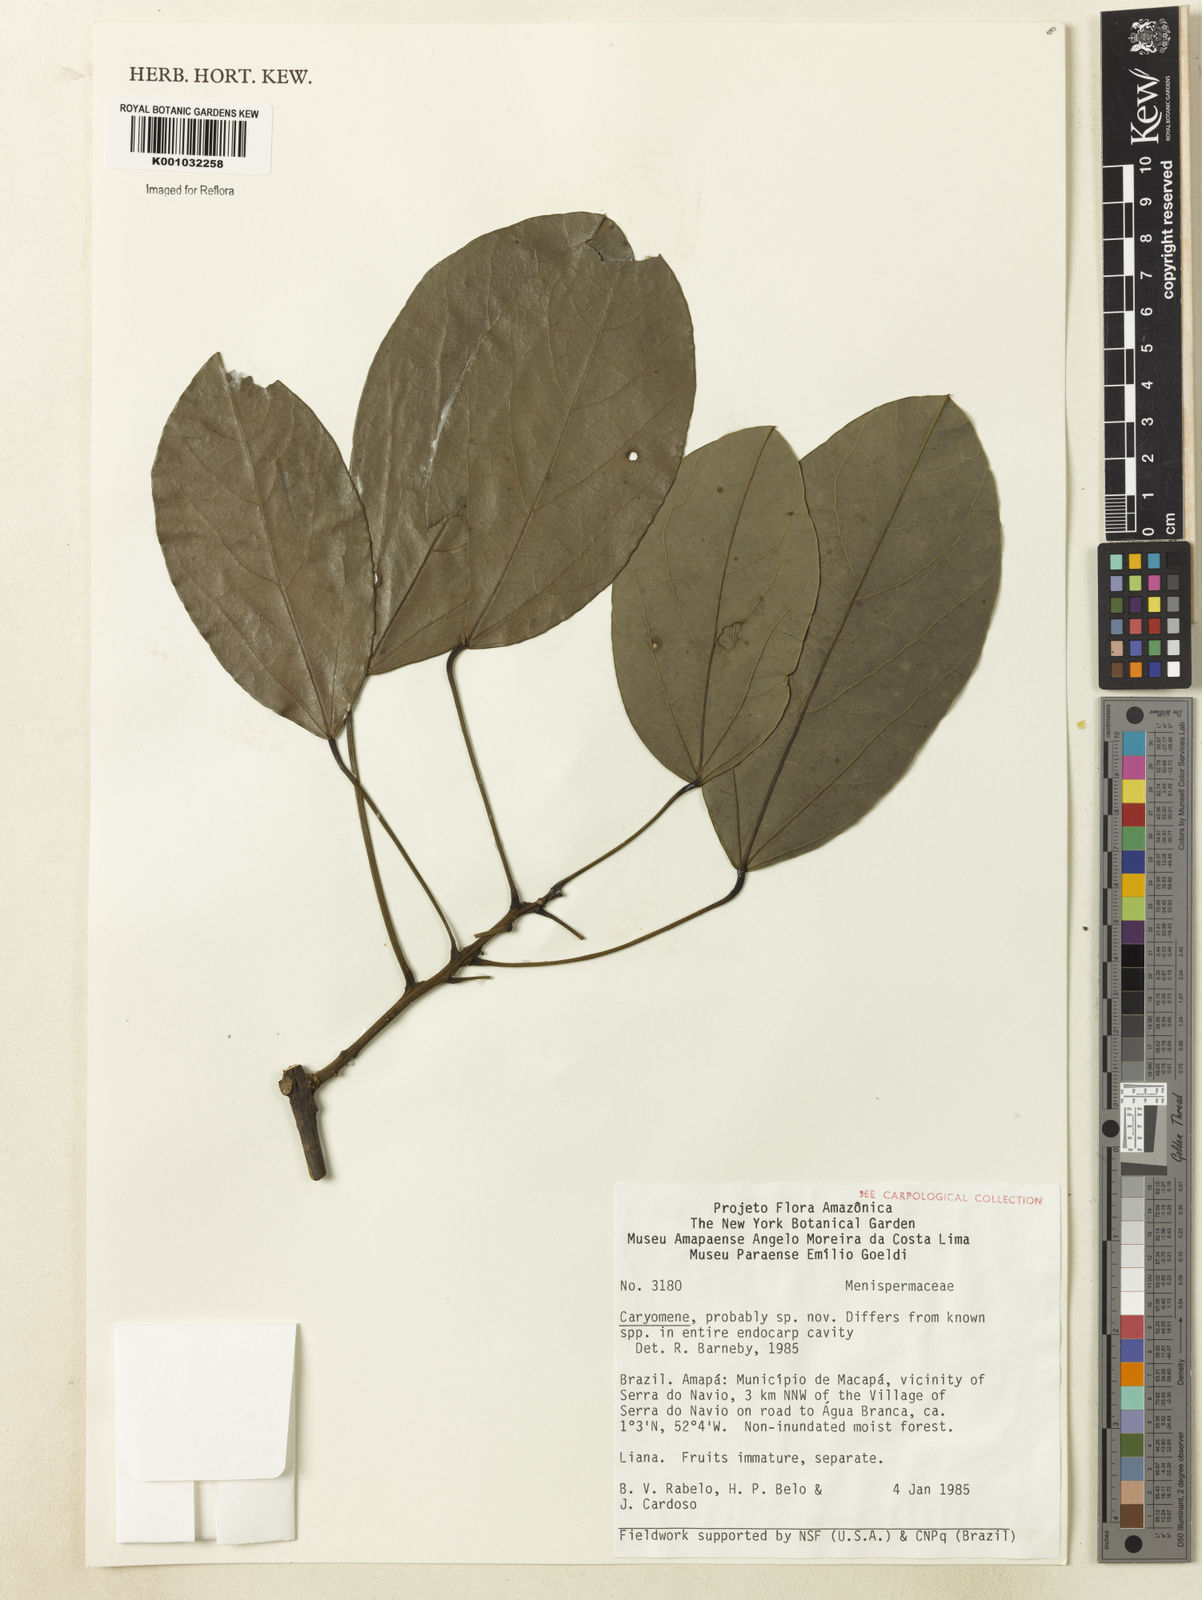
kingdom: Plantae
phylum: Tracheophyta
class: Magnoliopsida
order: Ranunculales
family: Menispermaceae
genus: Caryomene
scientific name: Caryomene
